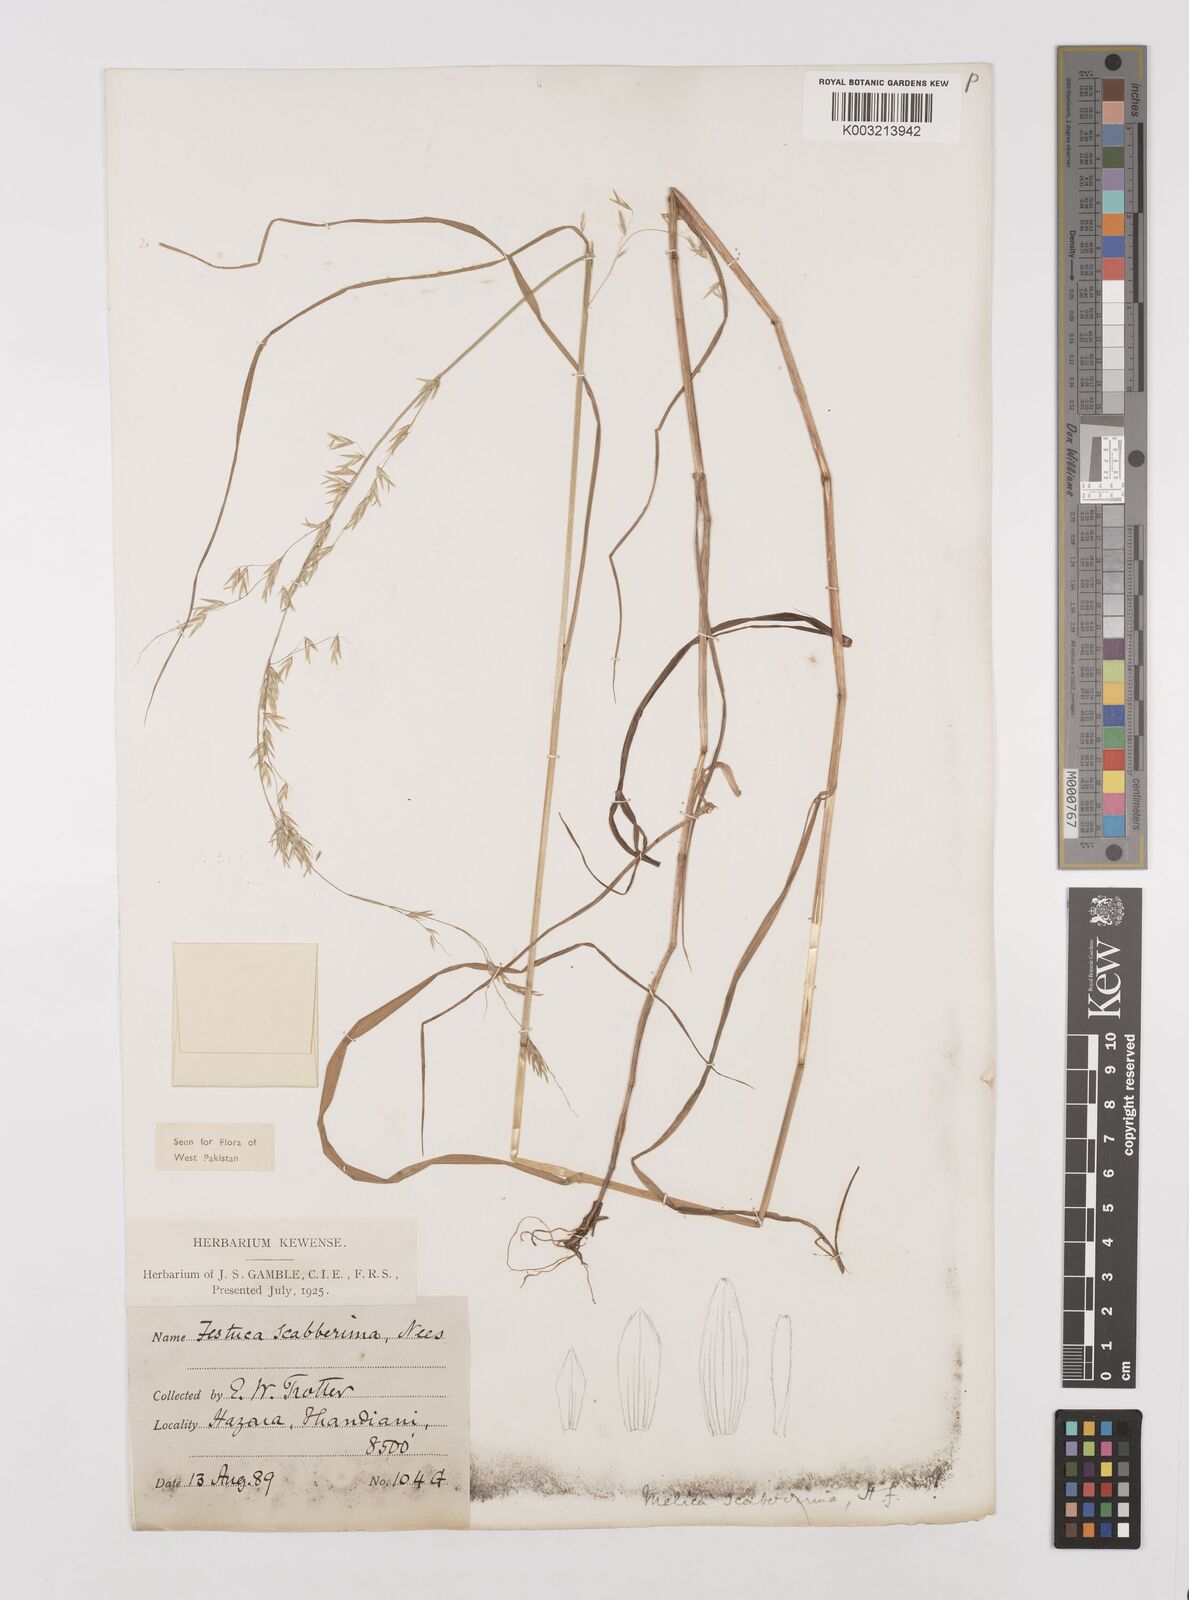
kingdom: Plantae
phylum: Tracheophyta
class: Liliopsida
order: Poales
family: Poaceae
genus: Melica
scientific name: Melica scaberrima
